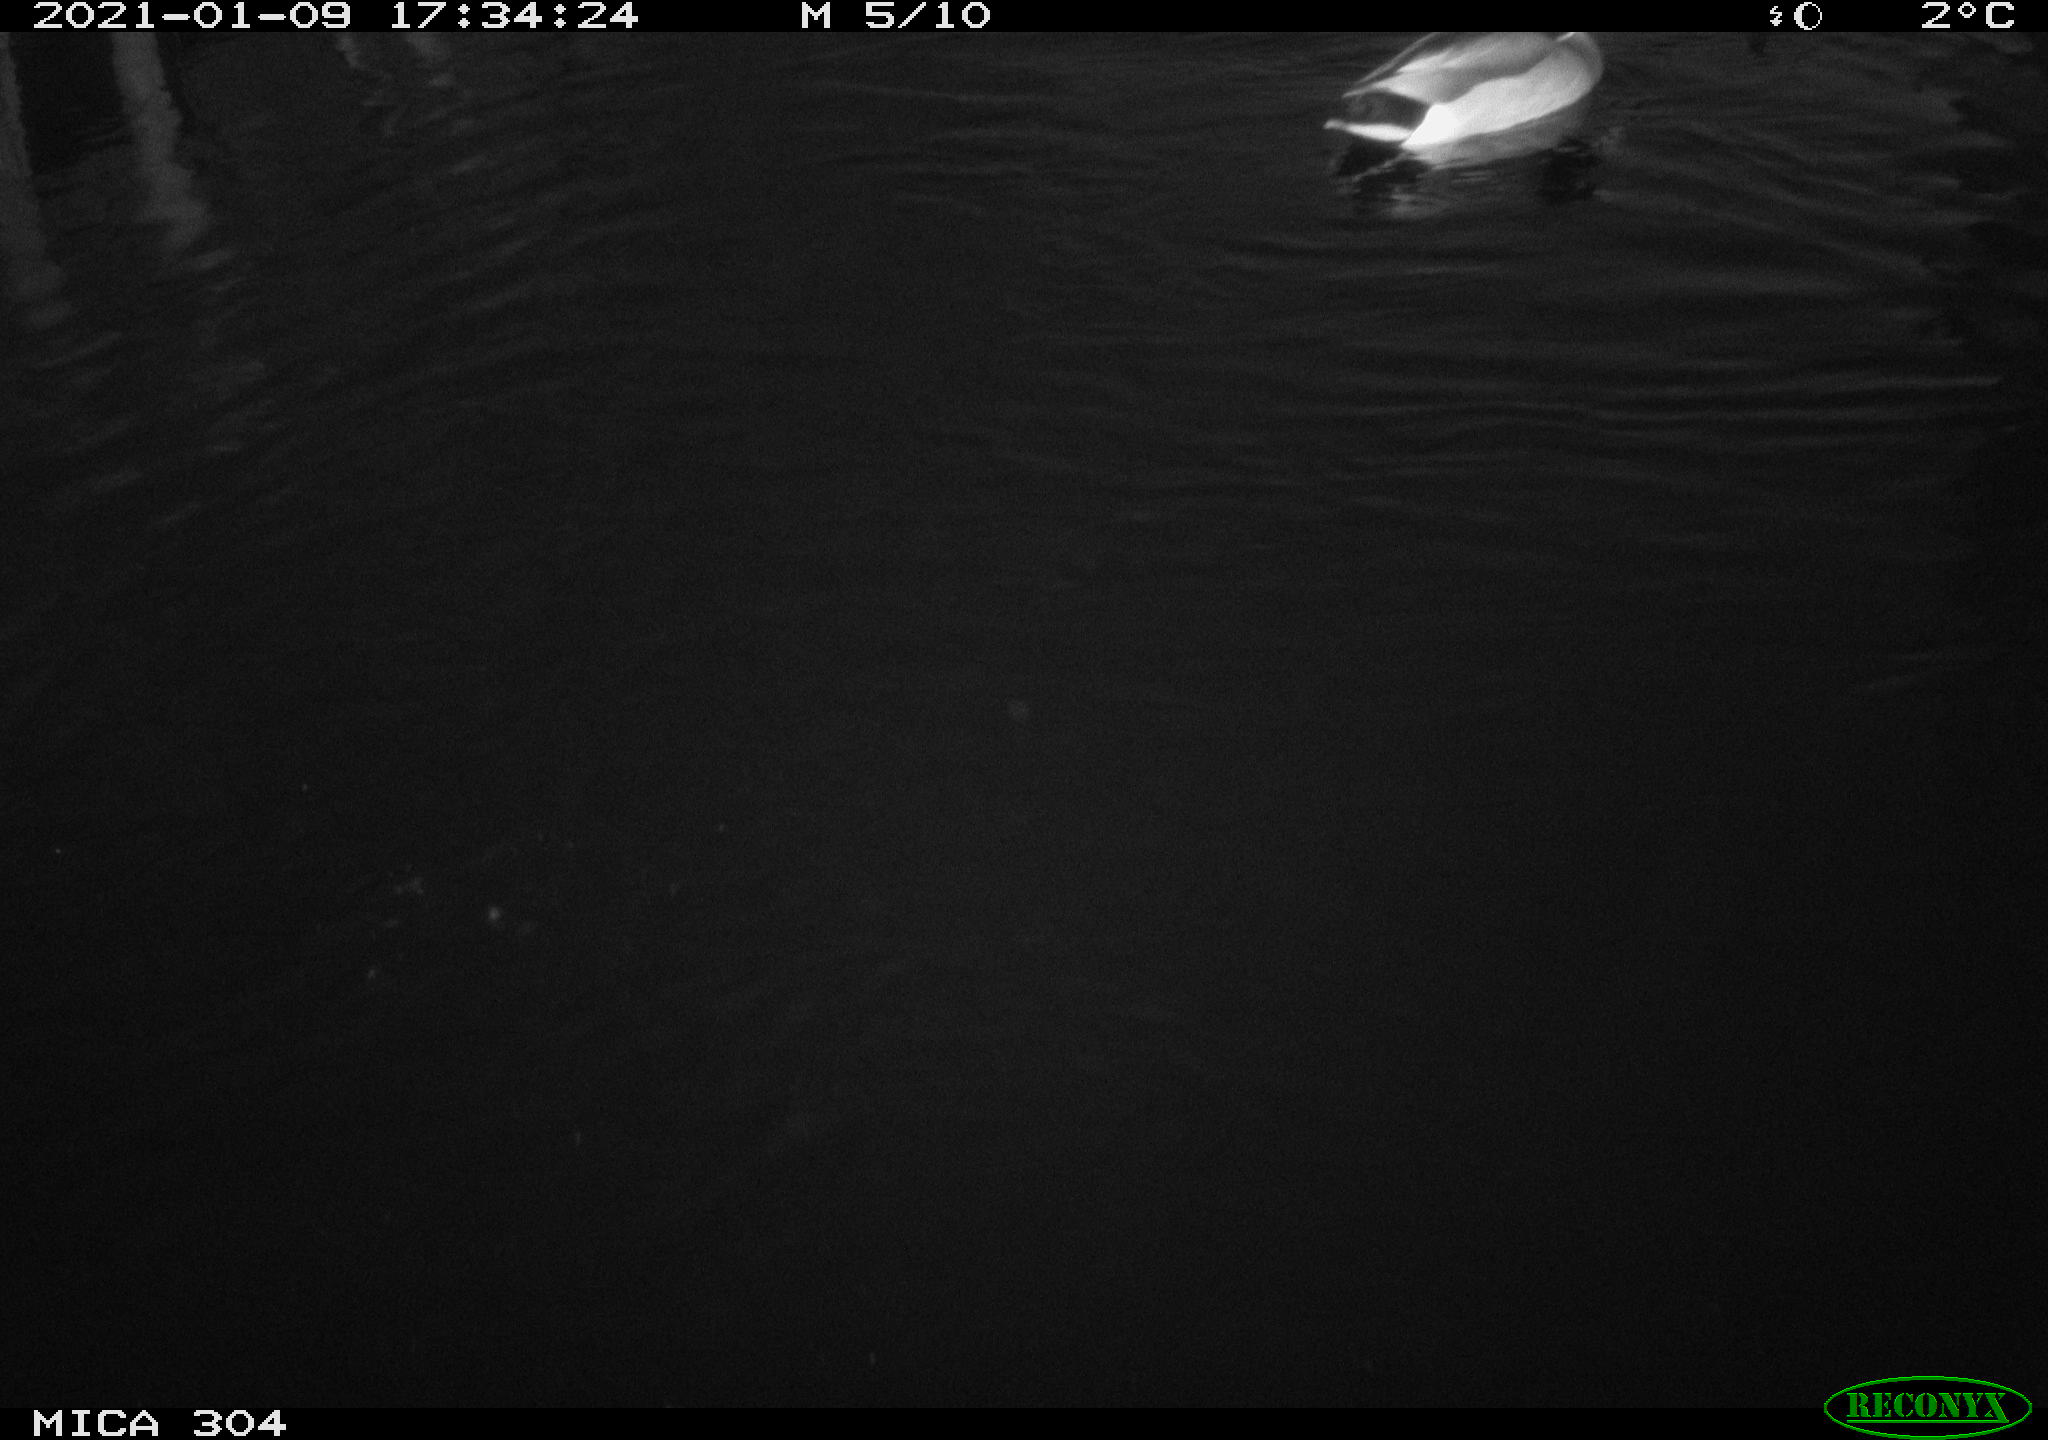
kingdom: Animalia
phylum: Chordata
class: Aves
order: Anseriformes
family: Anatidae
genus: Anas
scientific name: Anas platyrhynchos
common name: Mallard
